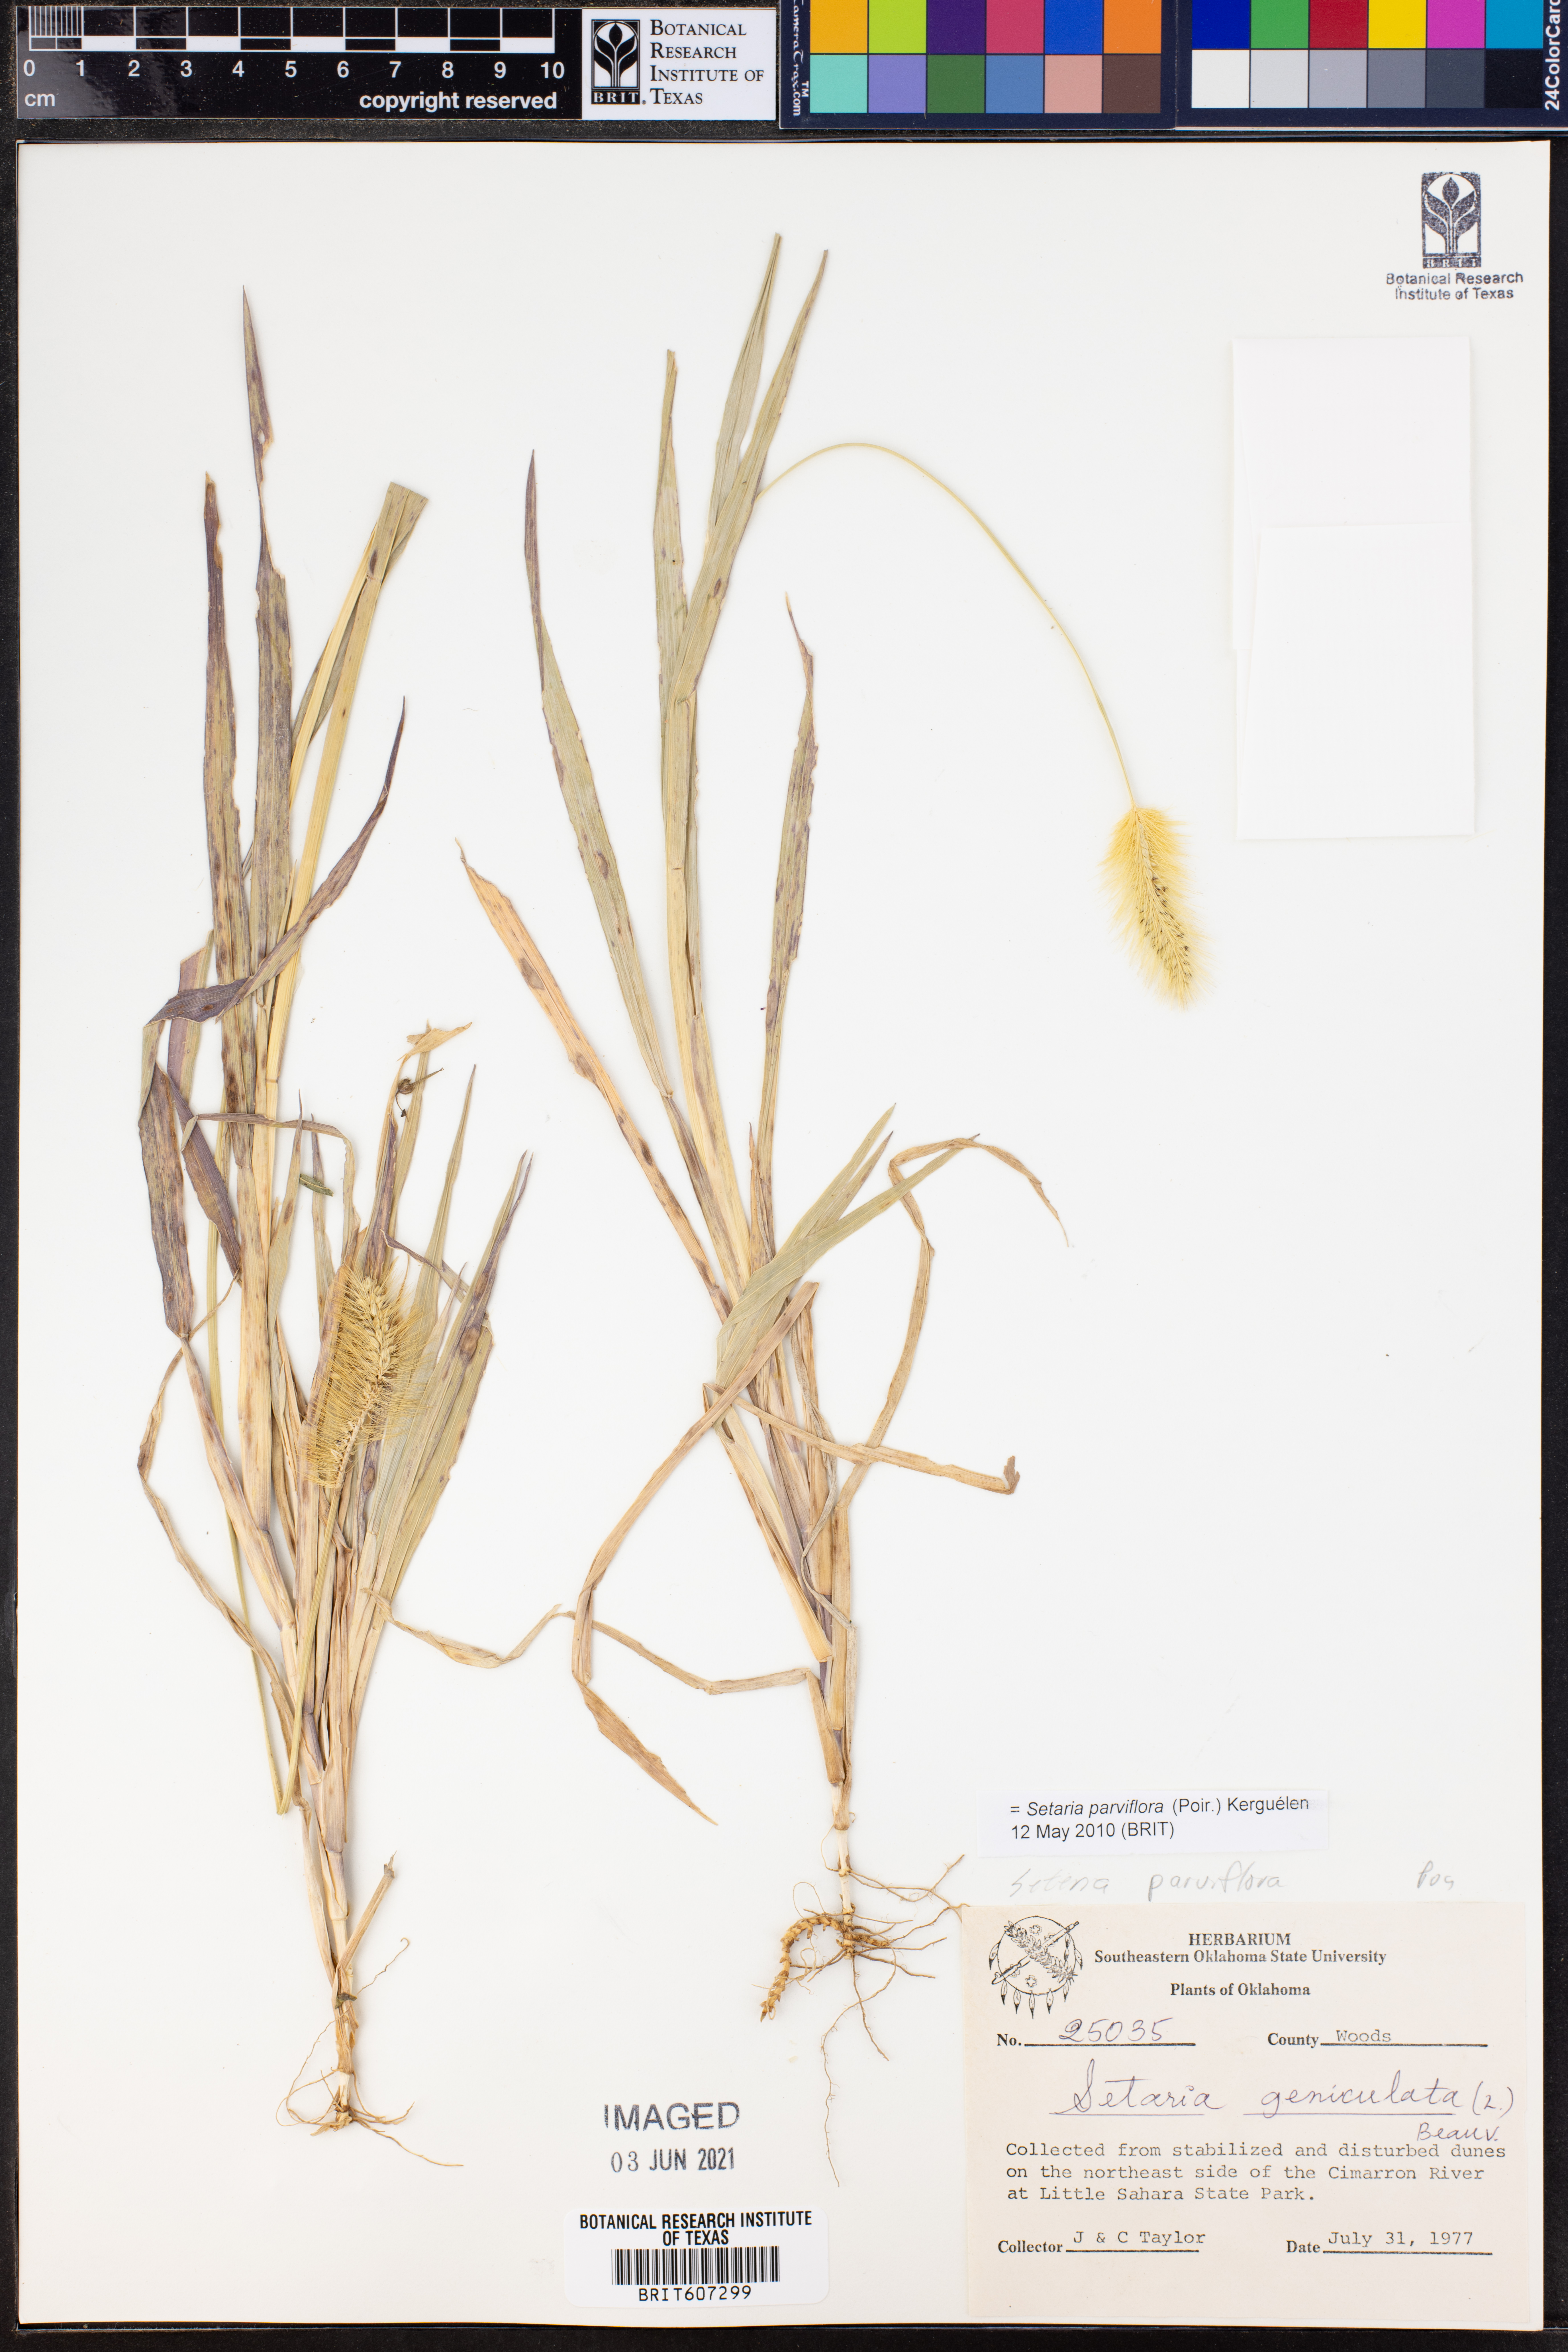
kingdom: Plantae
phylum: Tracheophyta
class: Liliopsida
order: Poales
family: Poaceae
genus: Setaria
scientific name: Setaria parviflora
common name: Knotroot bristle-grass
